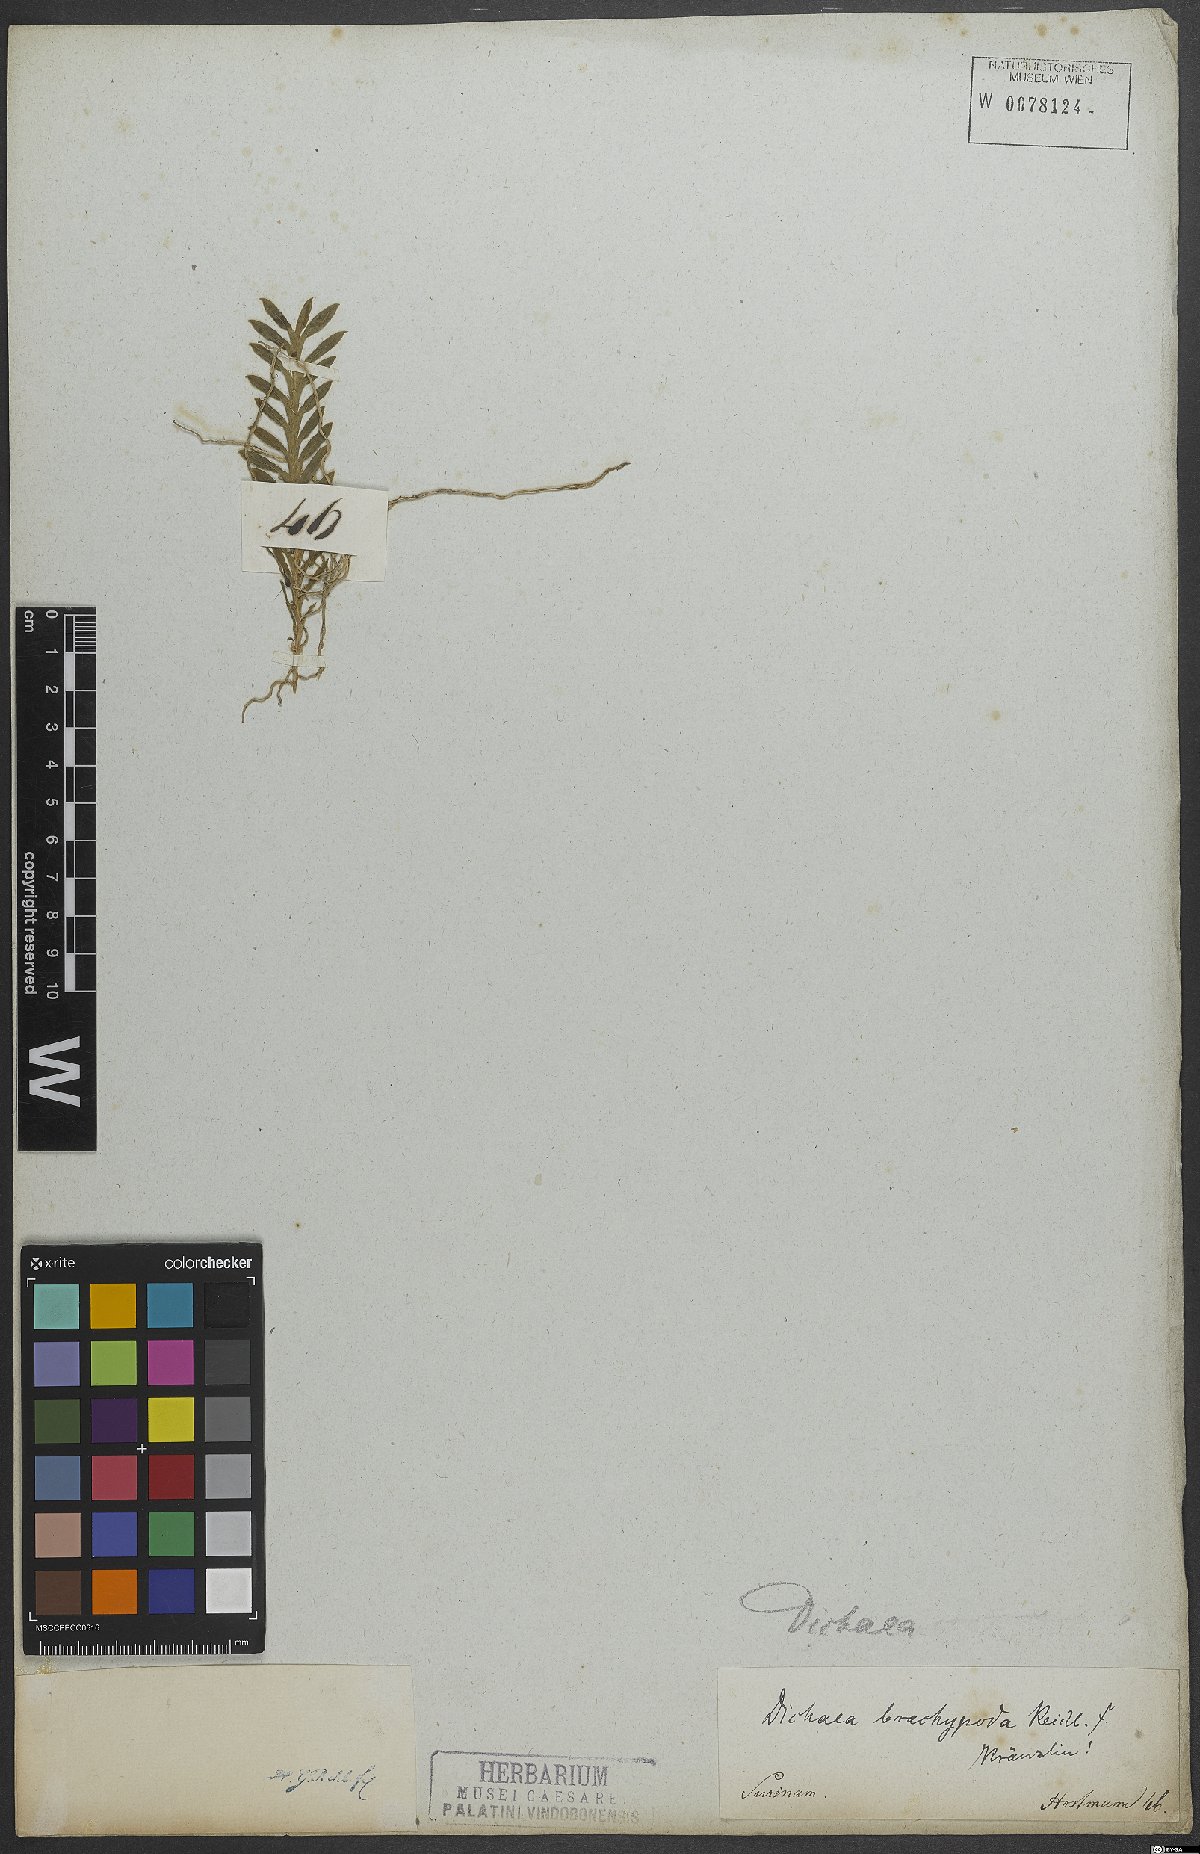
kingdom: Plantae
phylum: Tracheophyta
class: Liliopsida
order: Asparagales
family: Orchidaceae
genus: Dichaea
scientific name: Dichaea panamensis
